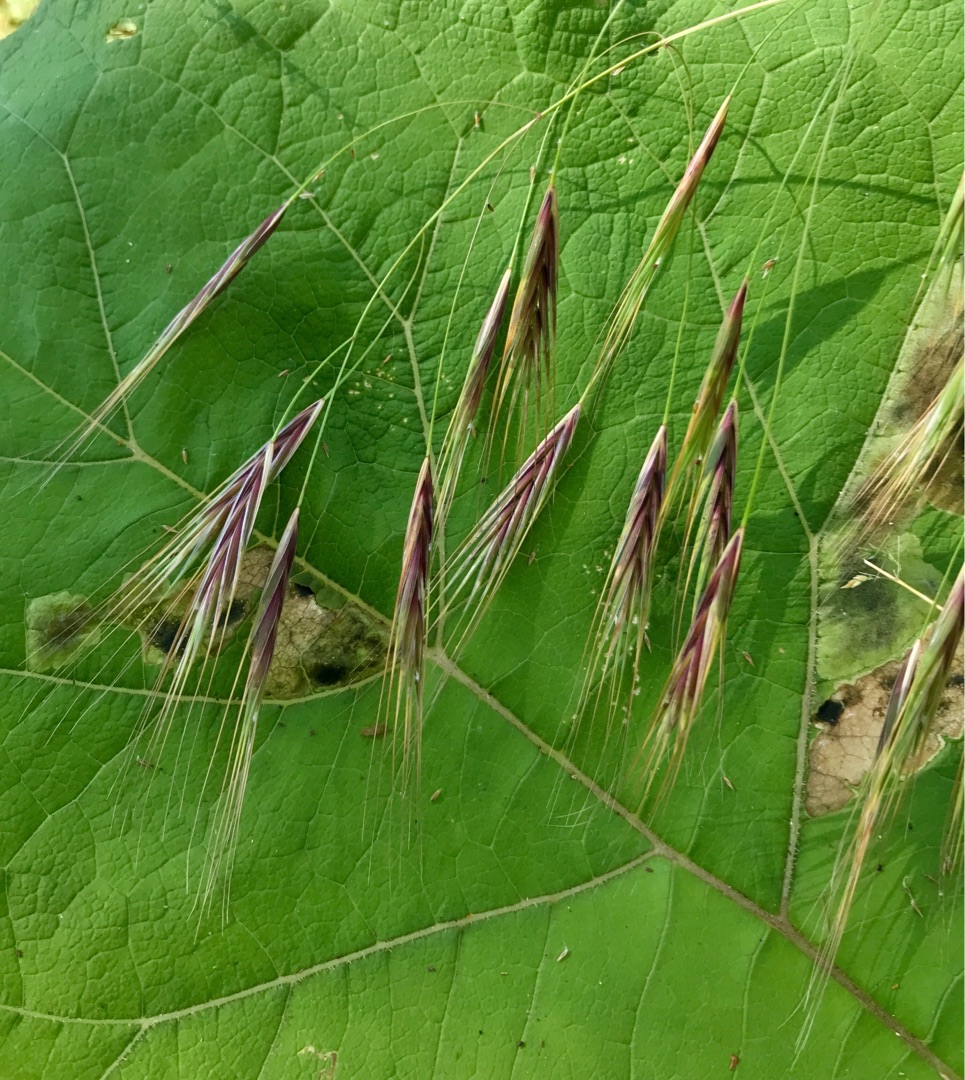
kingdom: Plantae
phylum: Tracheophyta
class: Liliopsida
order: Poales
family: Poaceae
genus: Bromus
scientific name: Bromus sterilis
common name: Gold hejre
